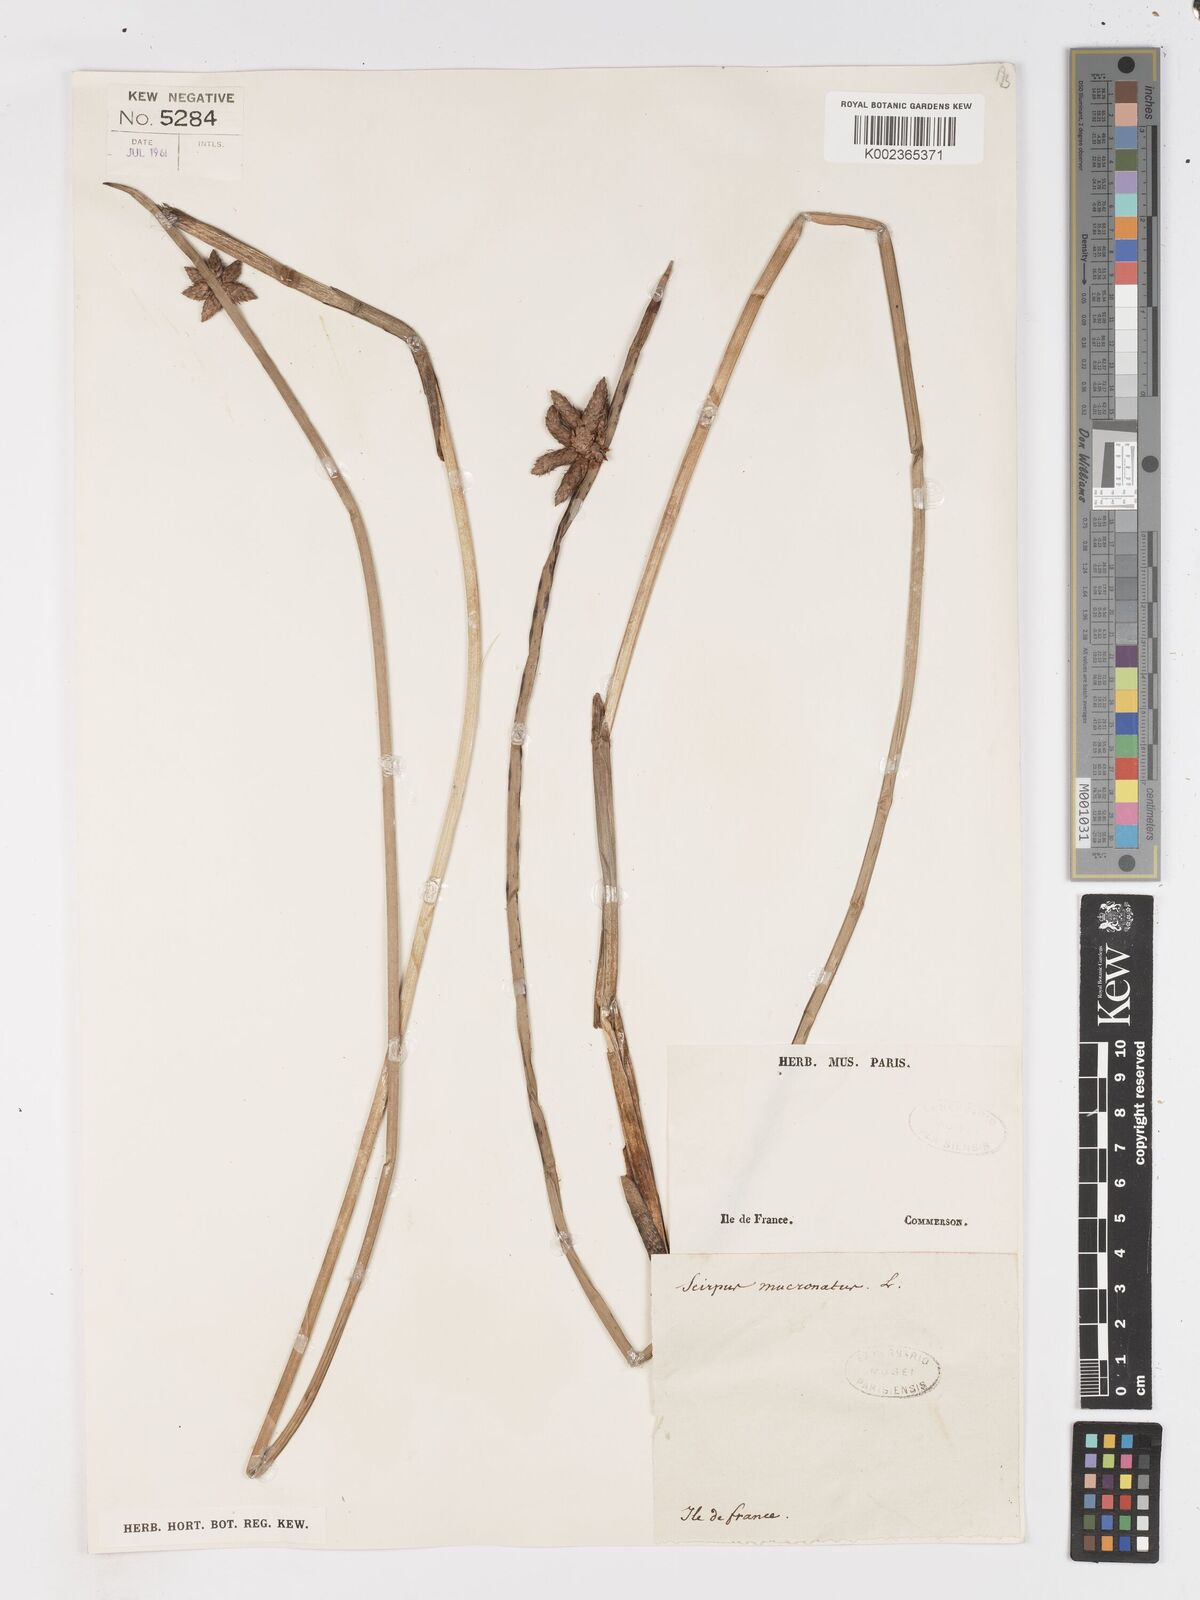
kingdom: Plantae
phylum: Tracheophyta
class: Liliopsida
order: Poales
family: Cyperaceae
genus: Schoenoplectiella
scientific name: Schoenoplectiella mucronata
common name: Bog bulrush
